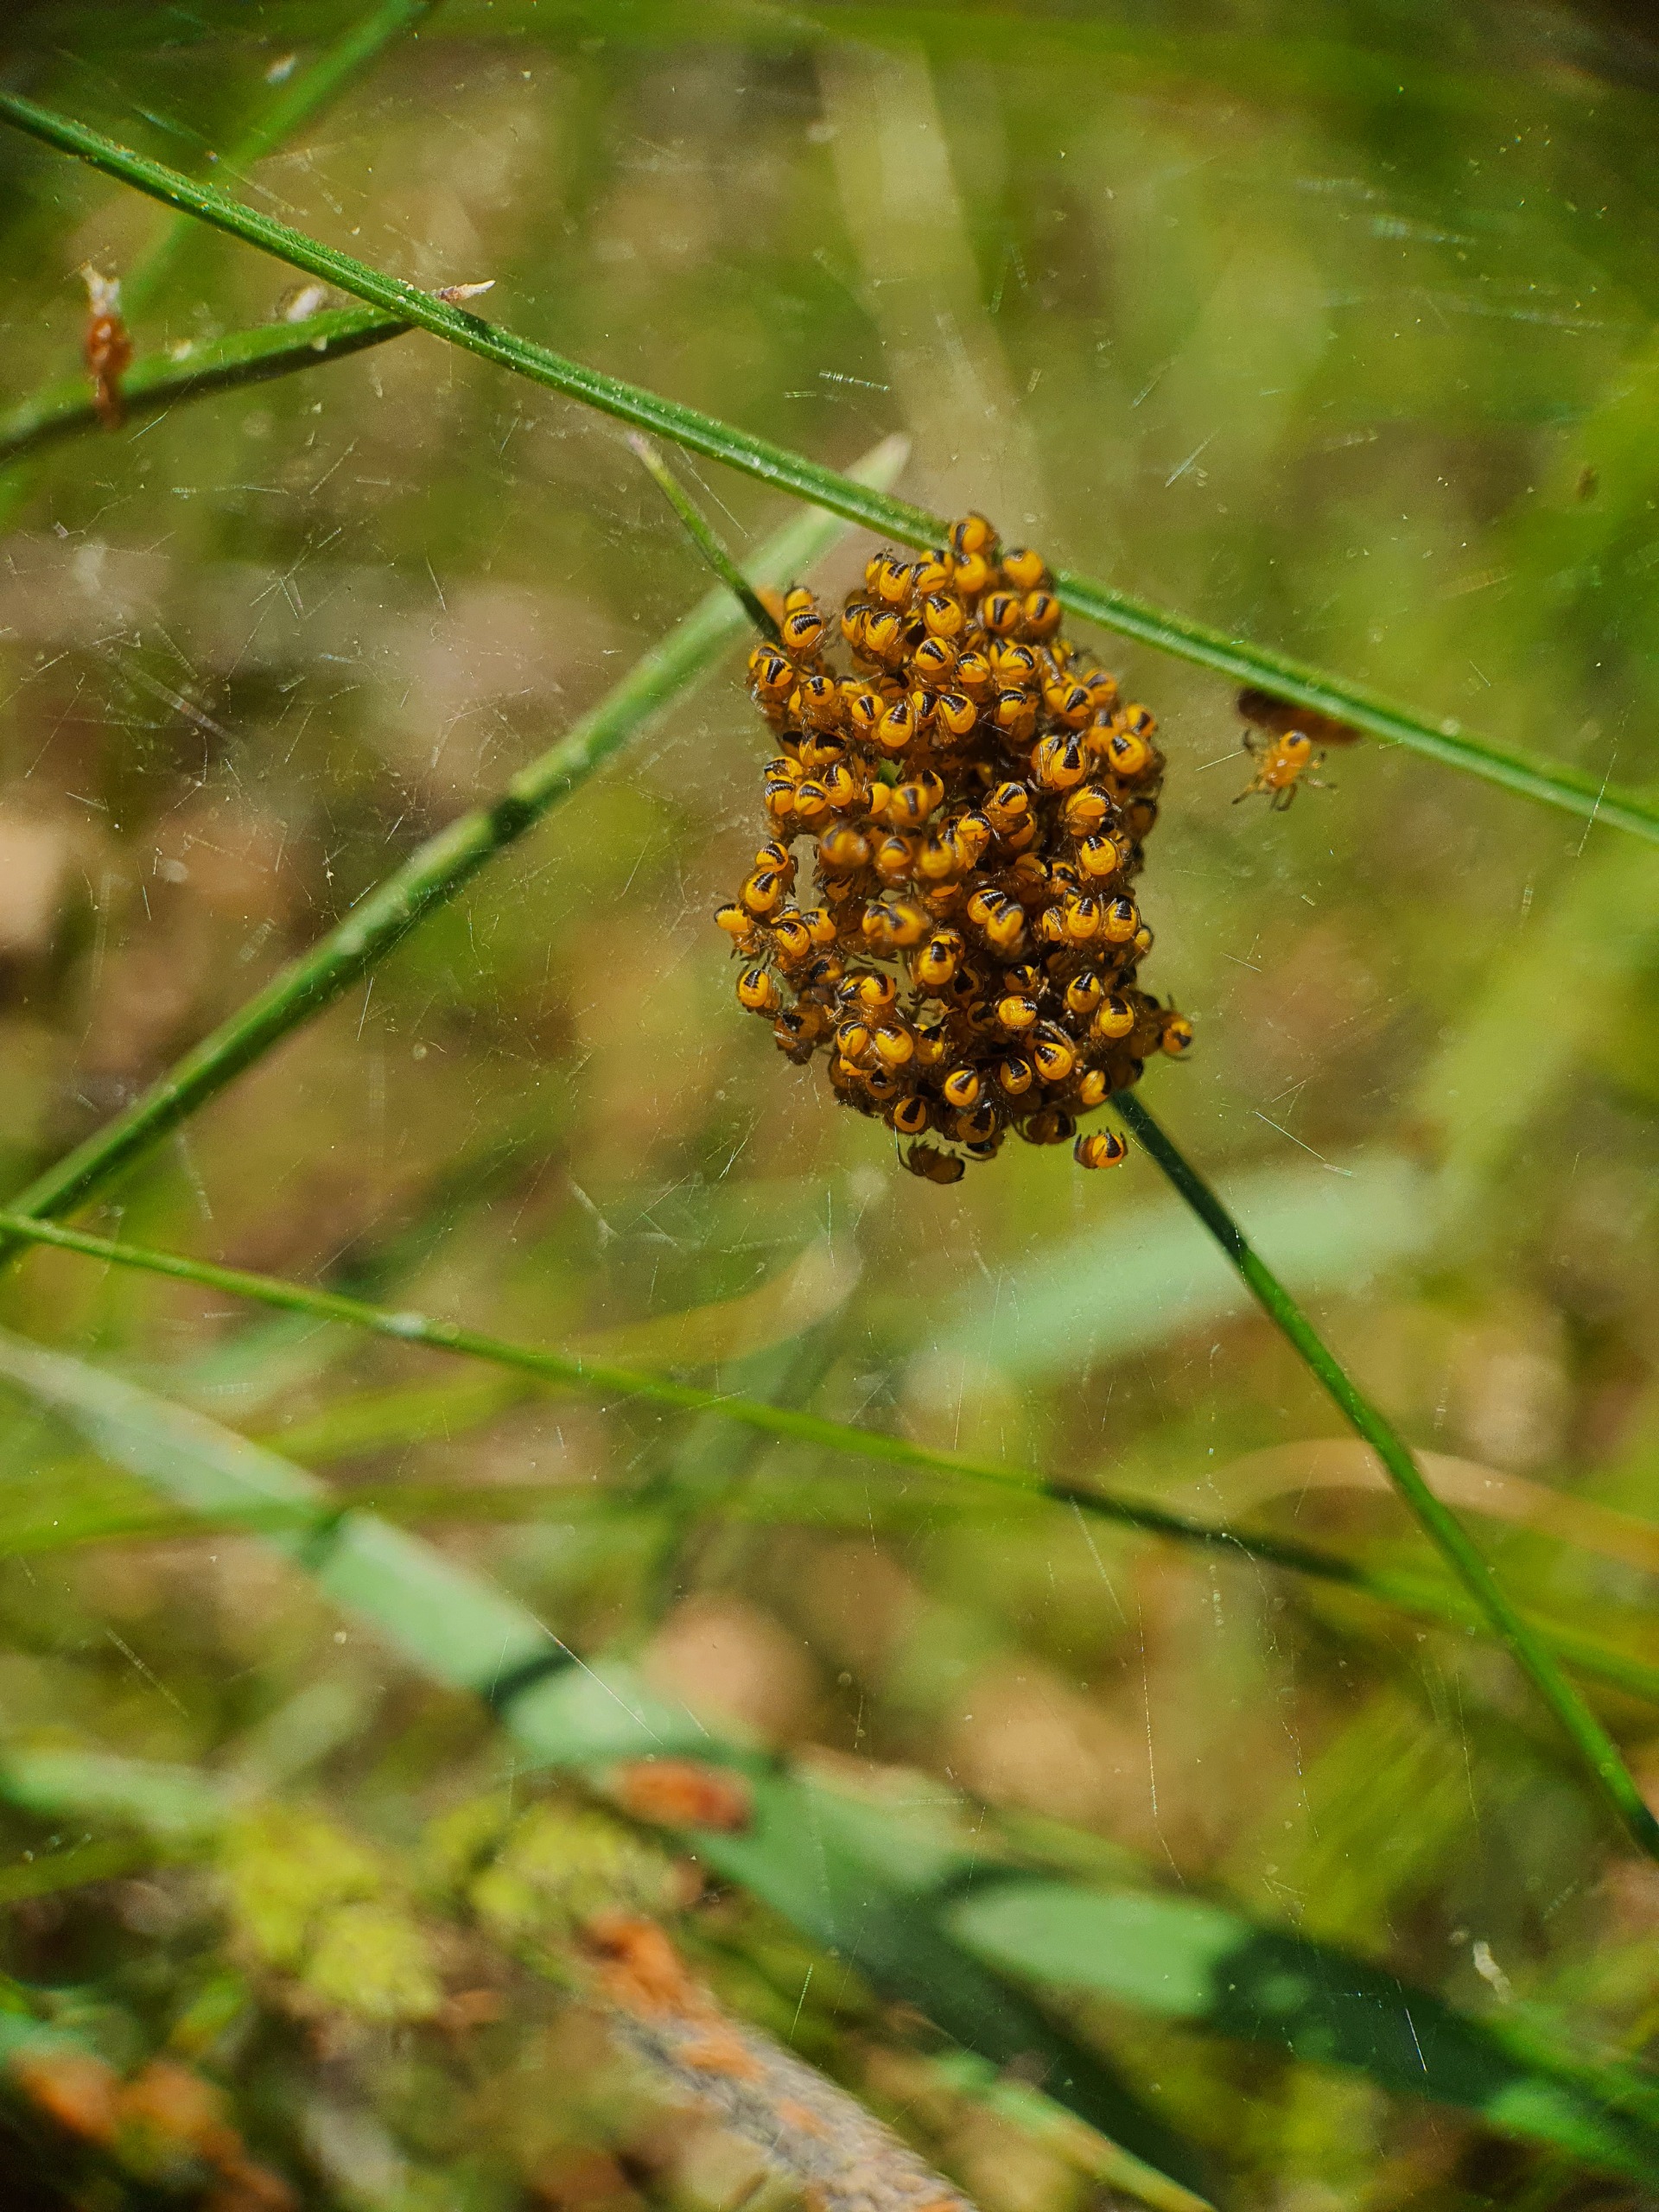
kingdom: Animalia
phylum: Arthropoda
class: Arachnida
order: Araneae
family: Araneidae
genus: Araneus
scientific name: Araneus diadematus
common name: Korsedderkop
